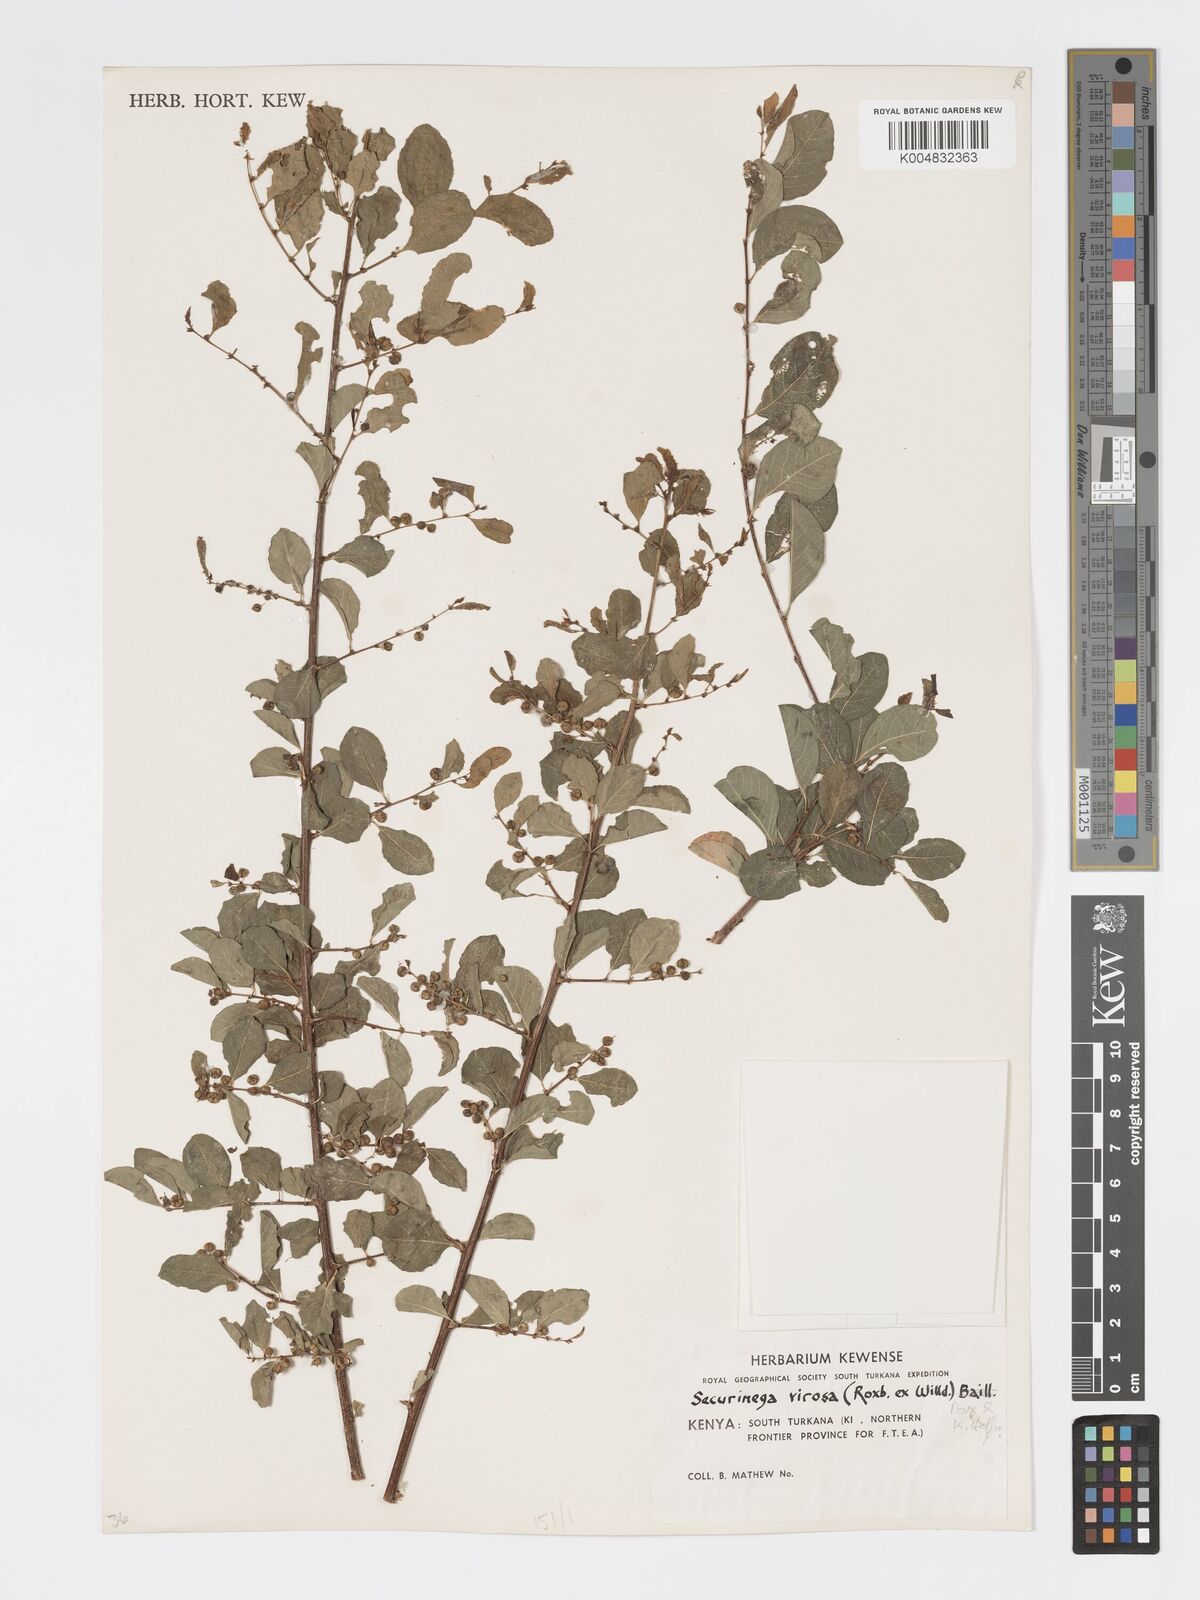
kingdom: Plantae
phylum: Tracheophyta
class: Magnoliopsida
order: Malpighiales
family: Phyllanthaceae
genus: Flueggea
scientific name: Flueggea virosa
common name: Common bushweed
